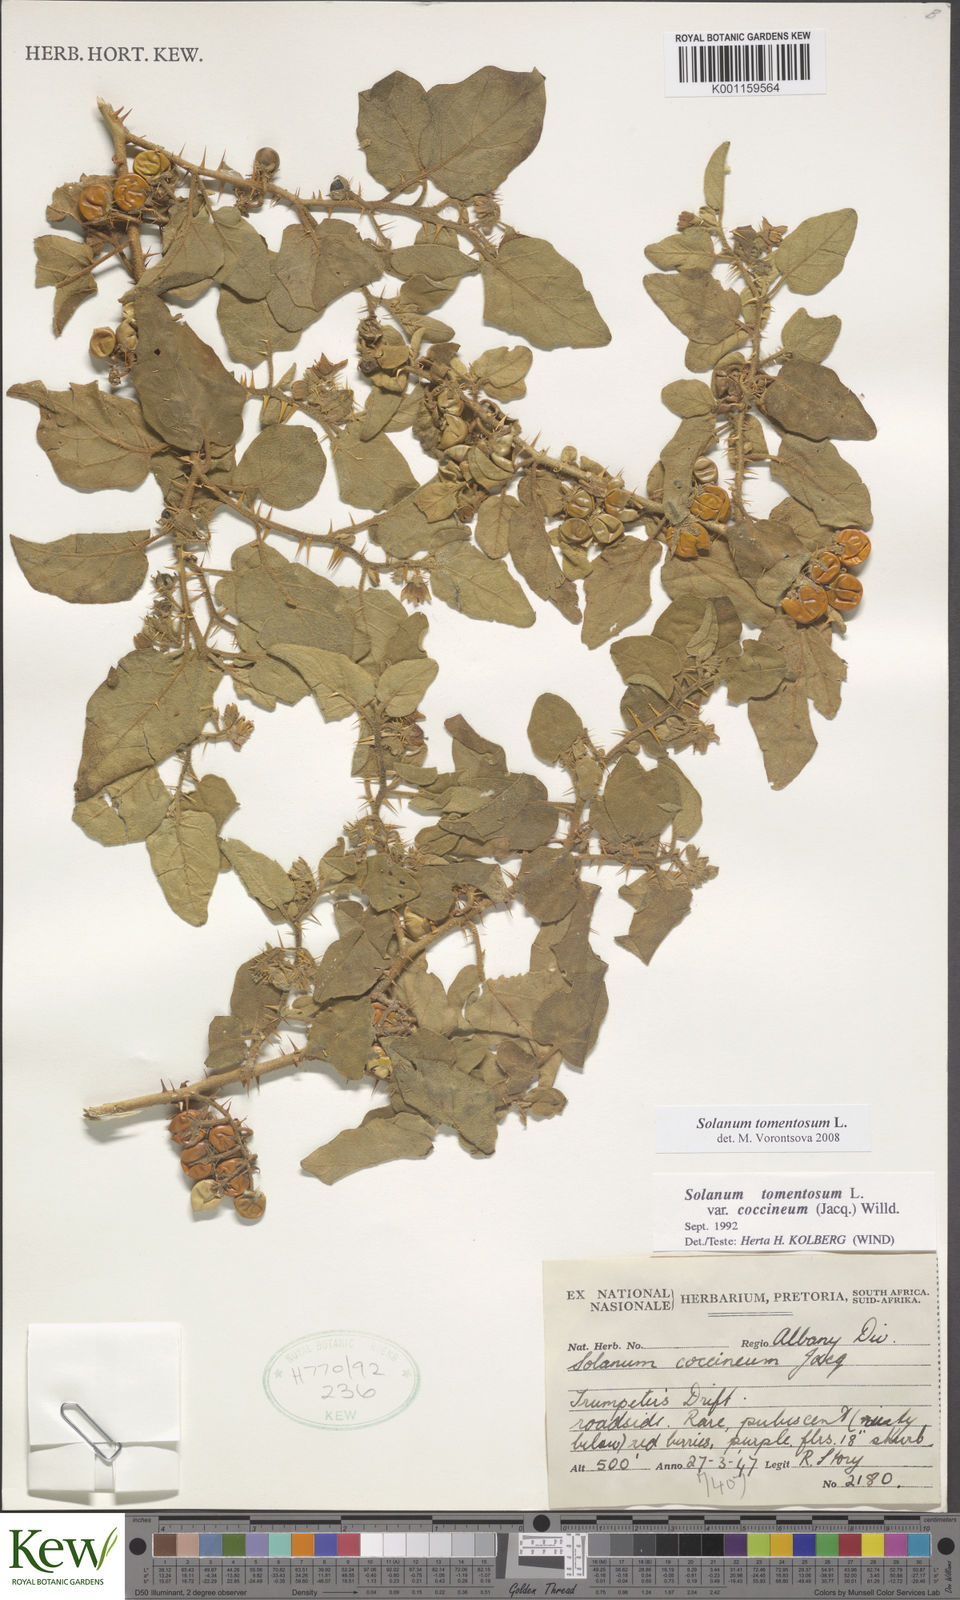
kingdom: Plantae
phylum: Tracheophyta
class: Magnoliopsida
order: Solanales
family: Solanaceae
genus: Solanum
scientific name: Solanum tomentosum
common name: Wild aubergine
